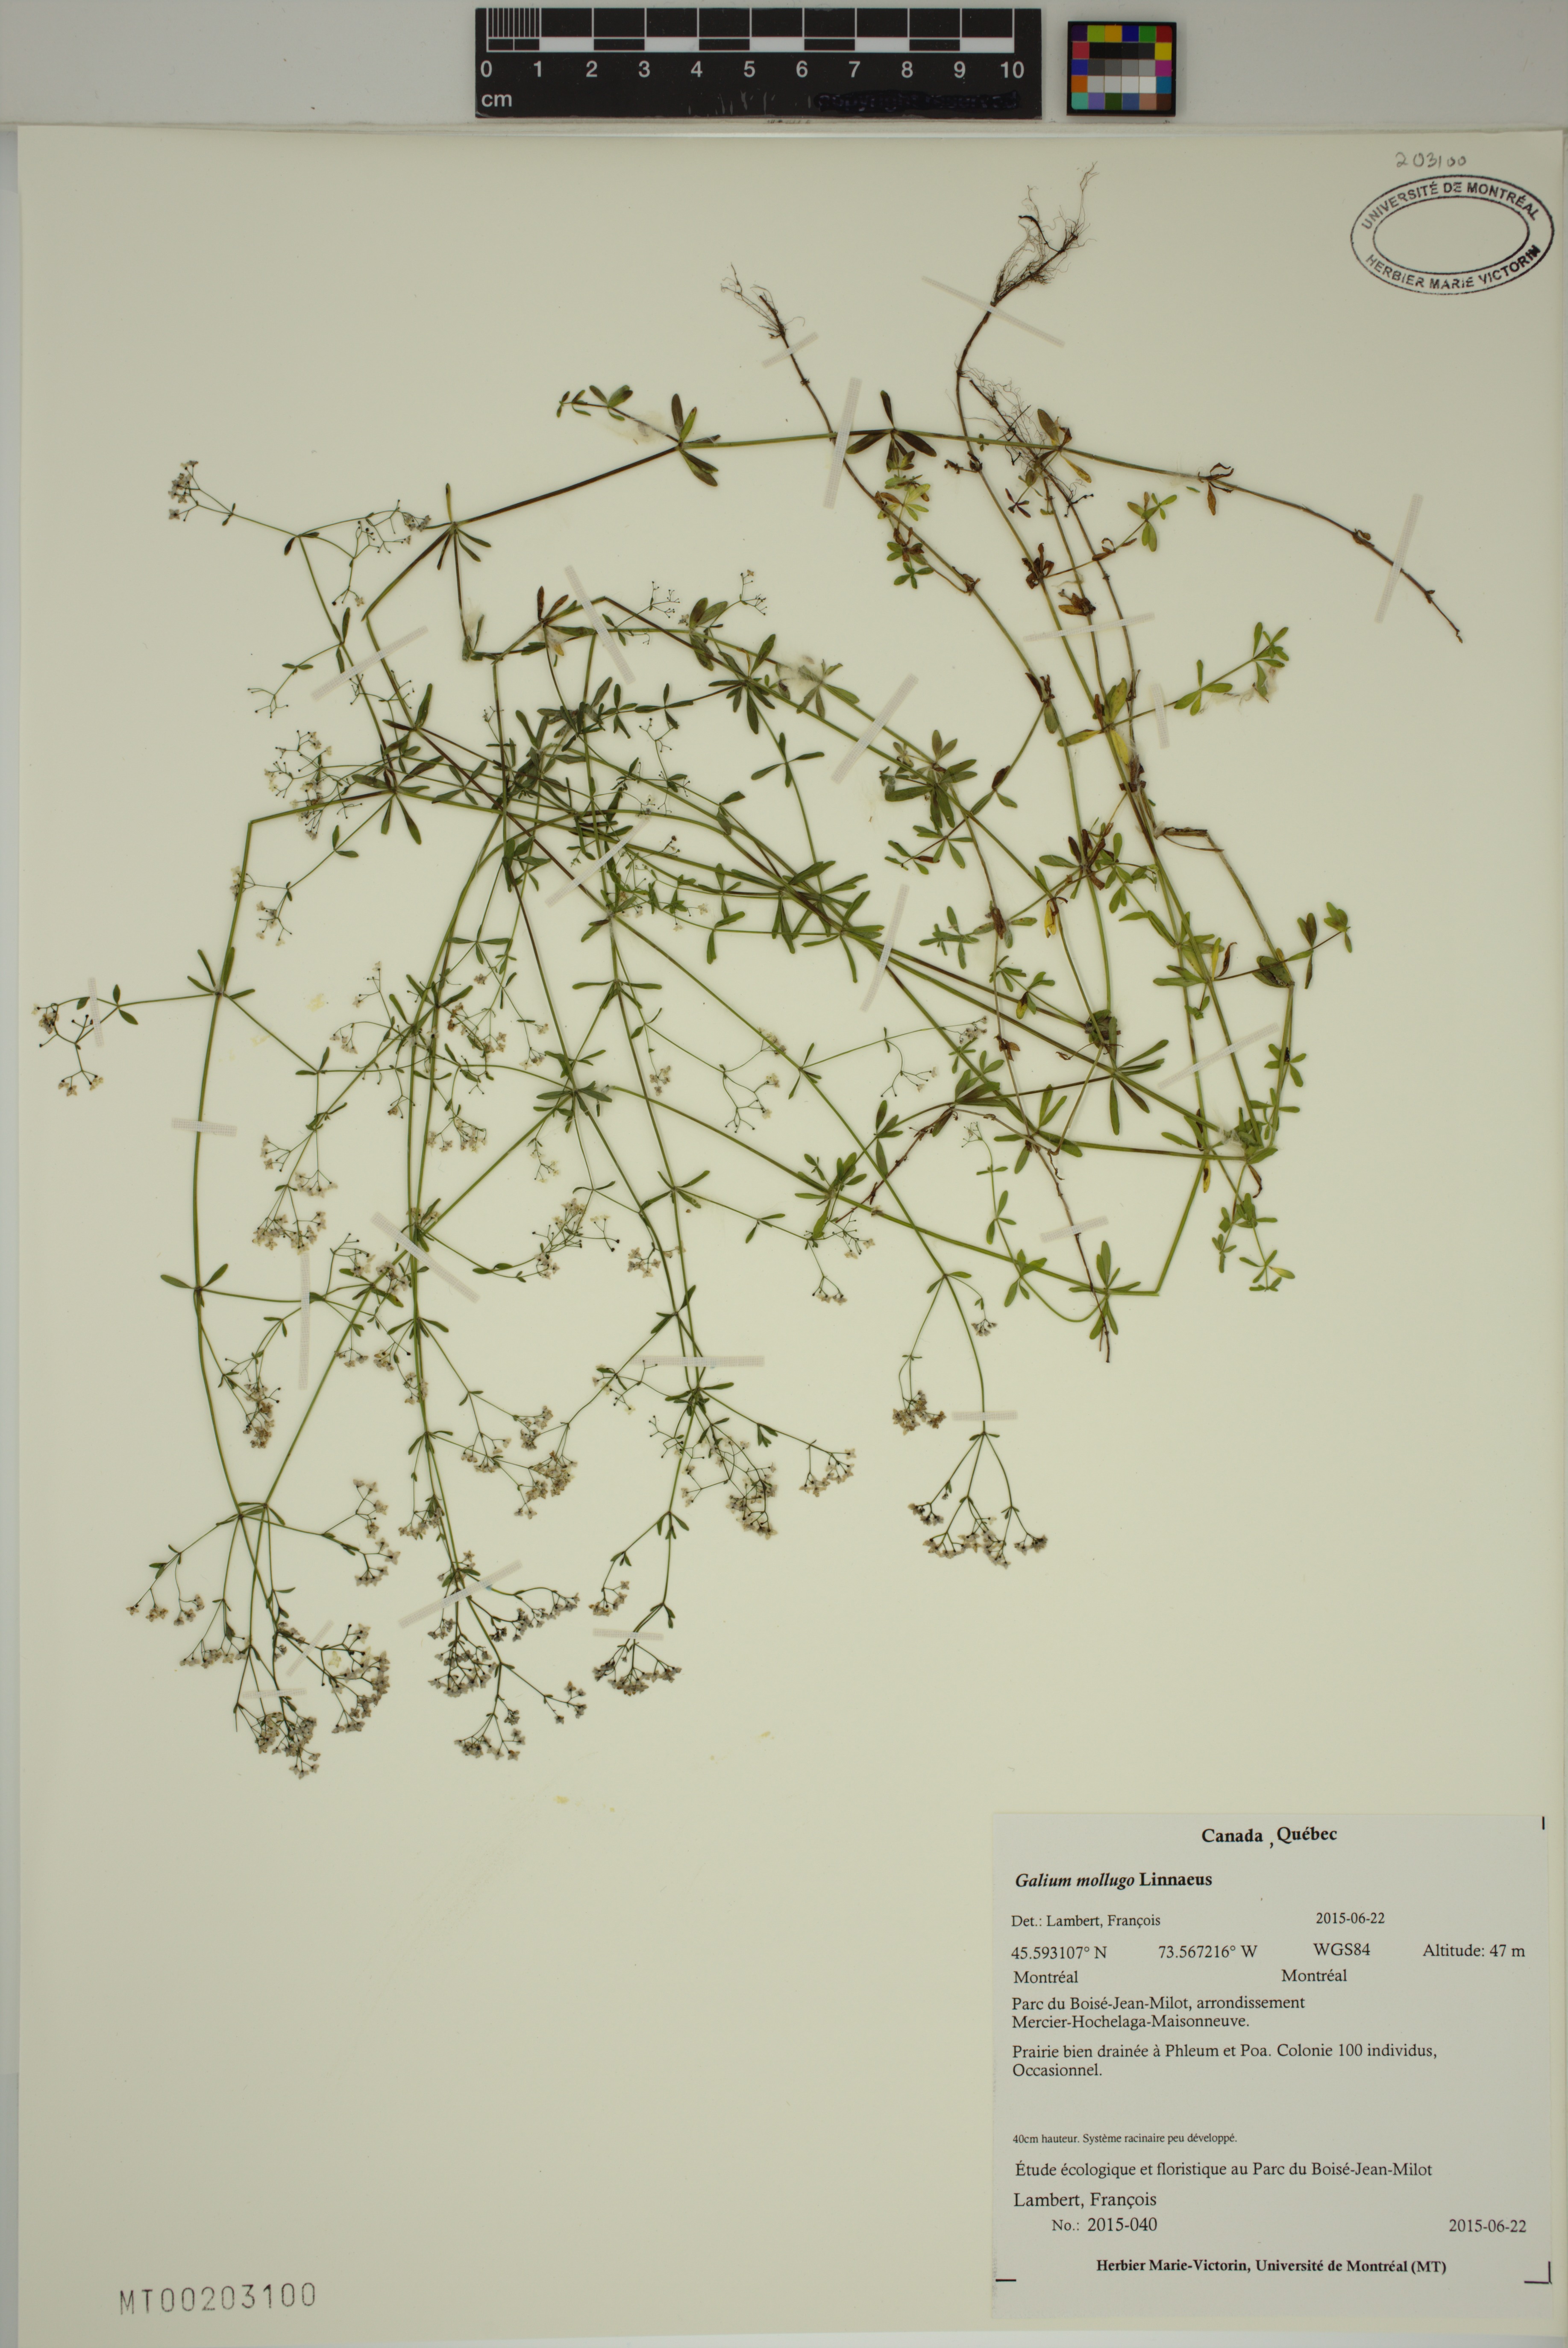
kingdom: Plantae
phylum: Tracheophyta
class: Magnoliopsida
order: Gentianales
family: Rubiaceae
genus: Galium
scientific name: Galium mollugo
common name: Hedge bedstraw
